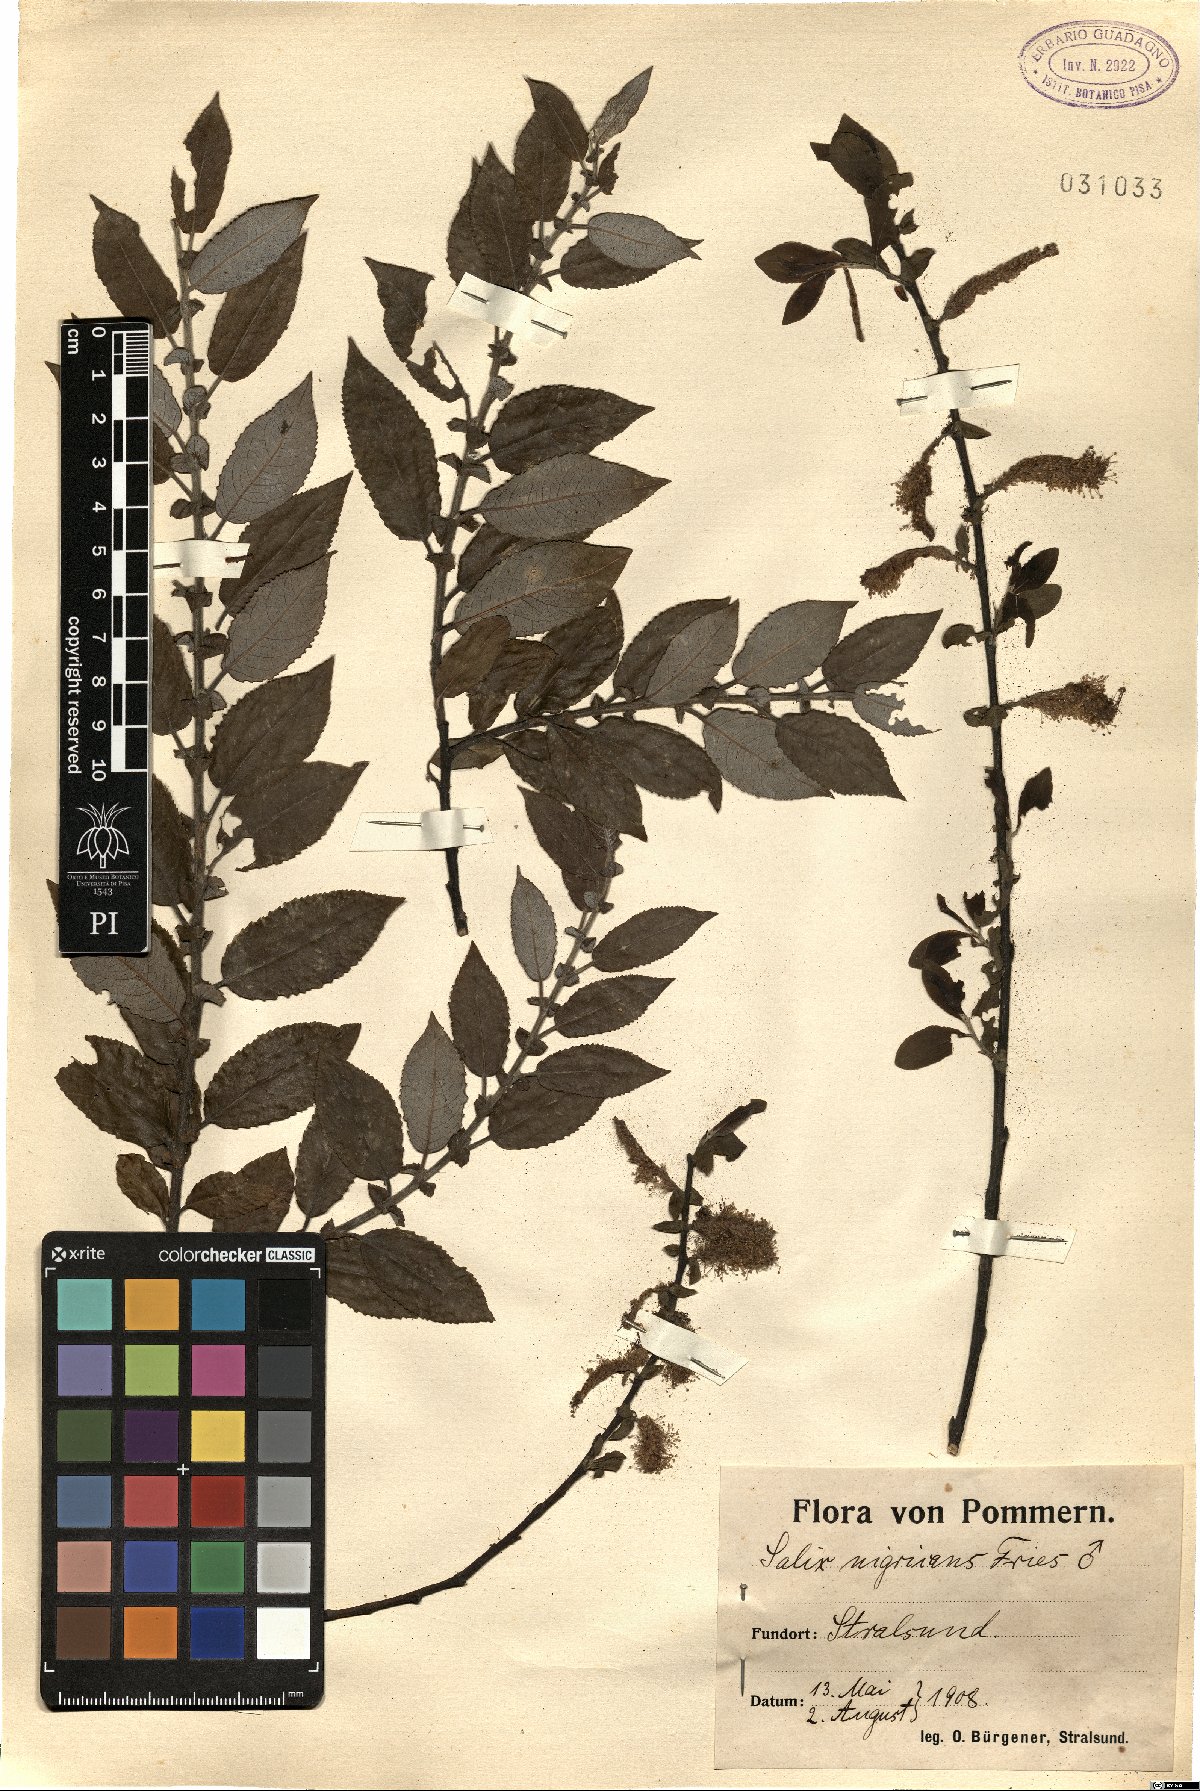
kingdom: Plantae
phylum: Tracheophyta
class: Magnoliopsida
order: Malpighiales
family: Salicaceae
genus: Salix
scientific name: Salix myrsinifolia
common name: Dark-leaved willow
